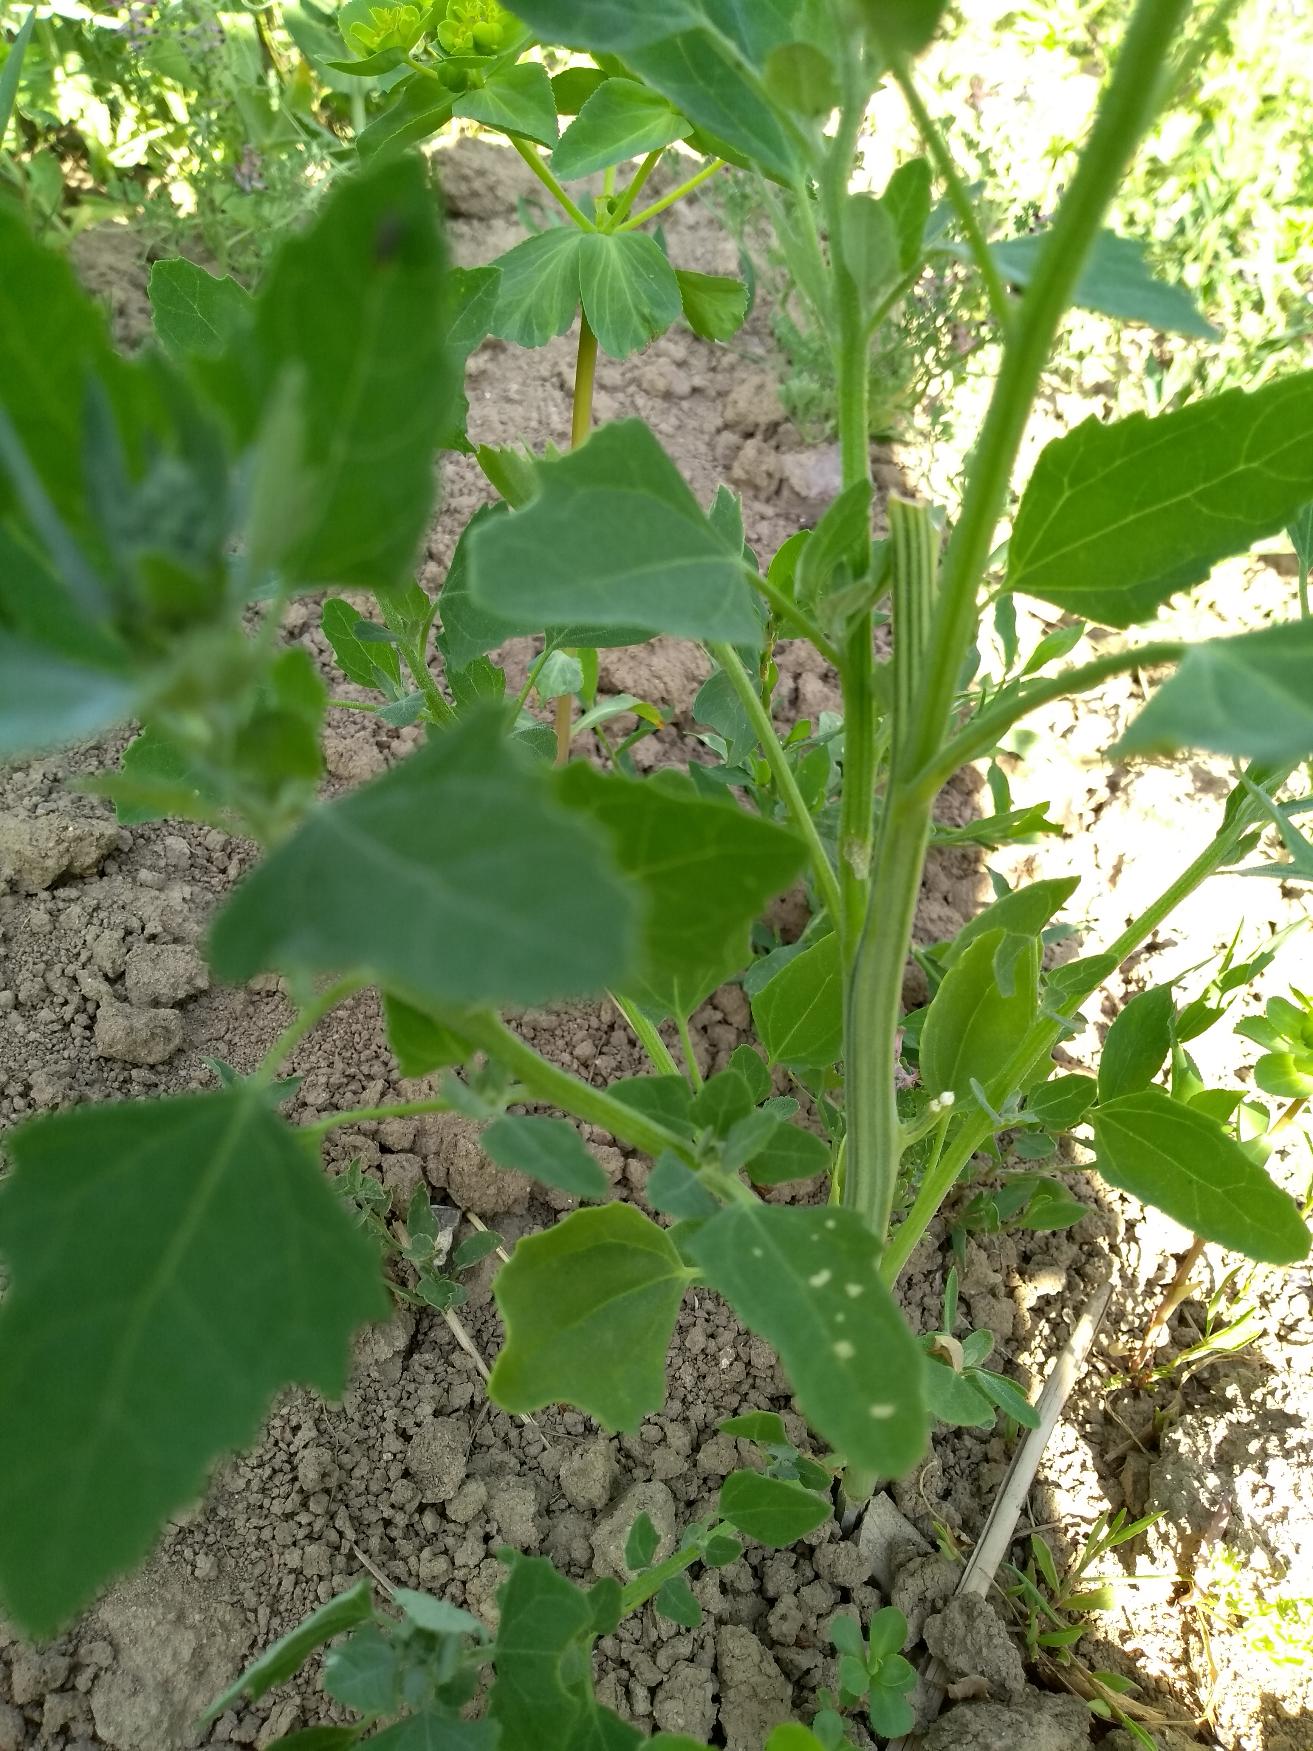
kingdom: Plantae
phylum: Tracheophyta
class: Magnoliopsida
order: Caryophyllales
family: Amaranthaceae
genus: Chenopodium
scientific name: Chenopodium album
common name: Hvidmelet gåsefod
